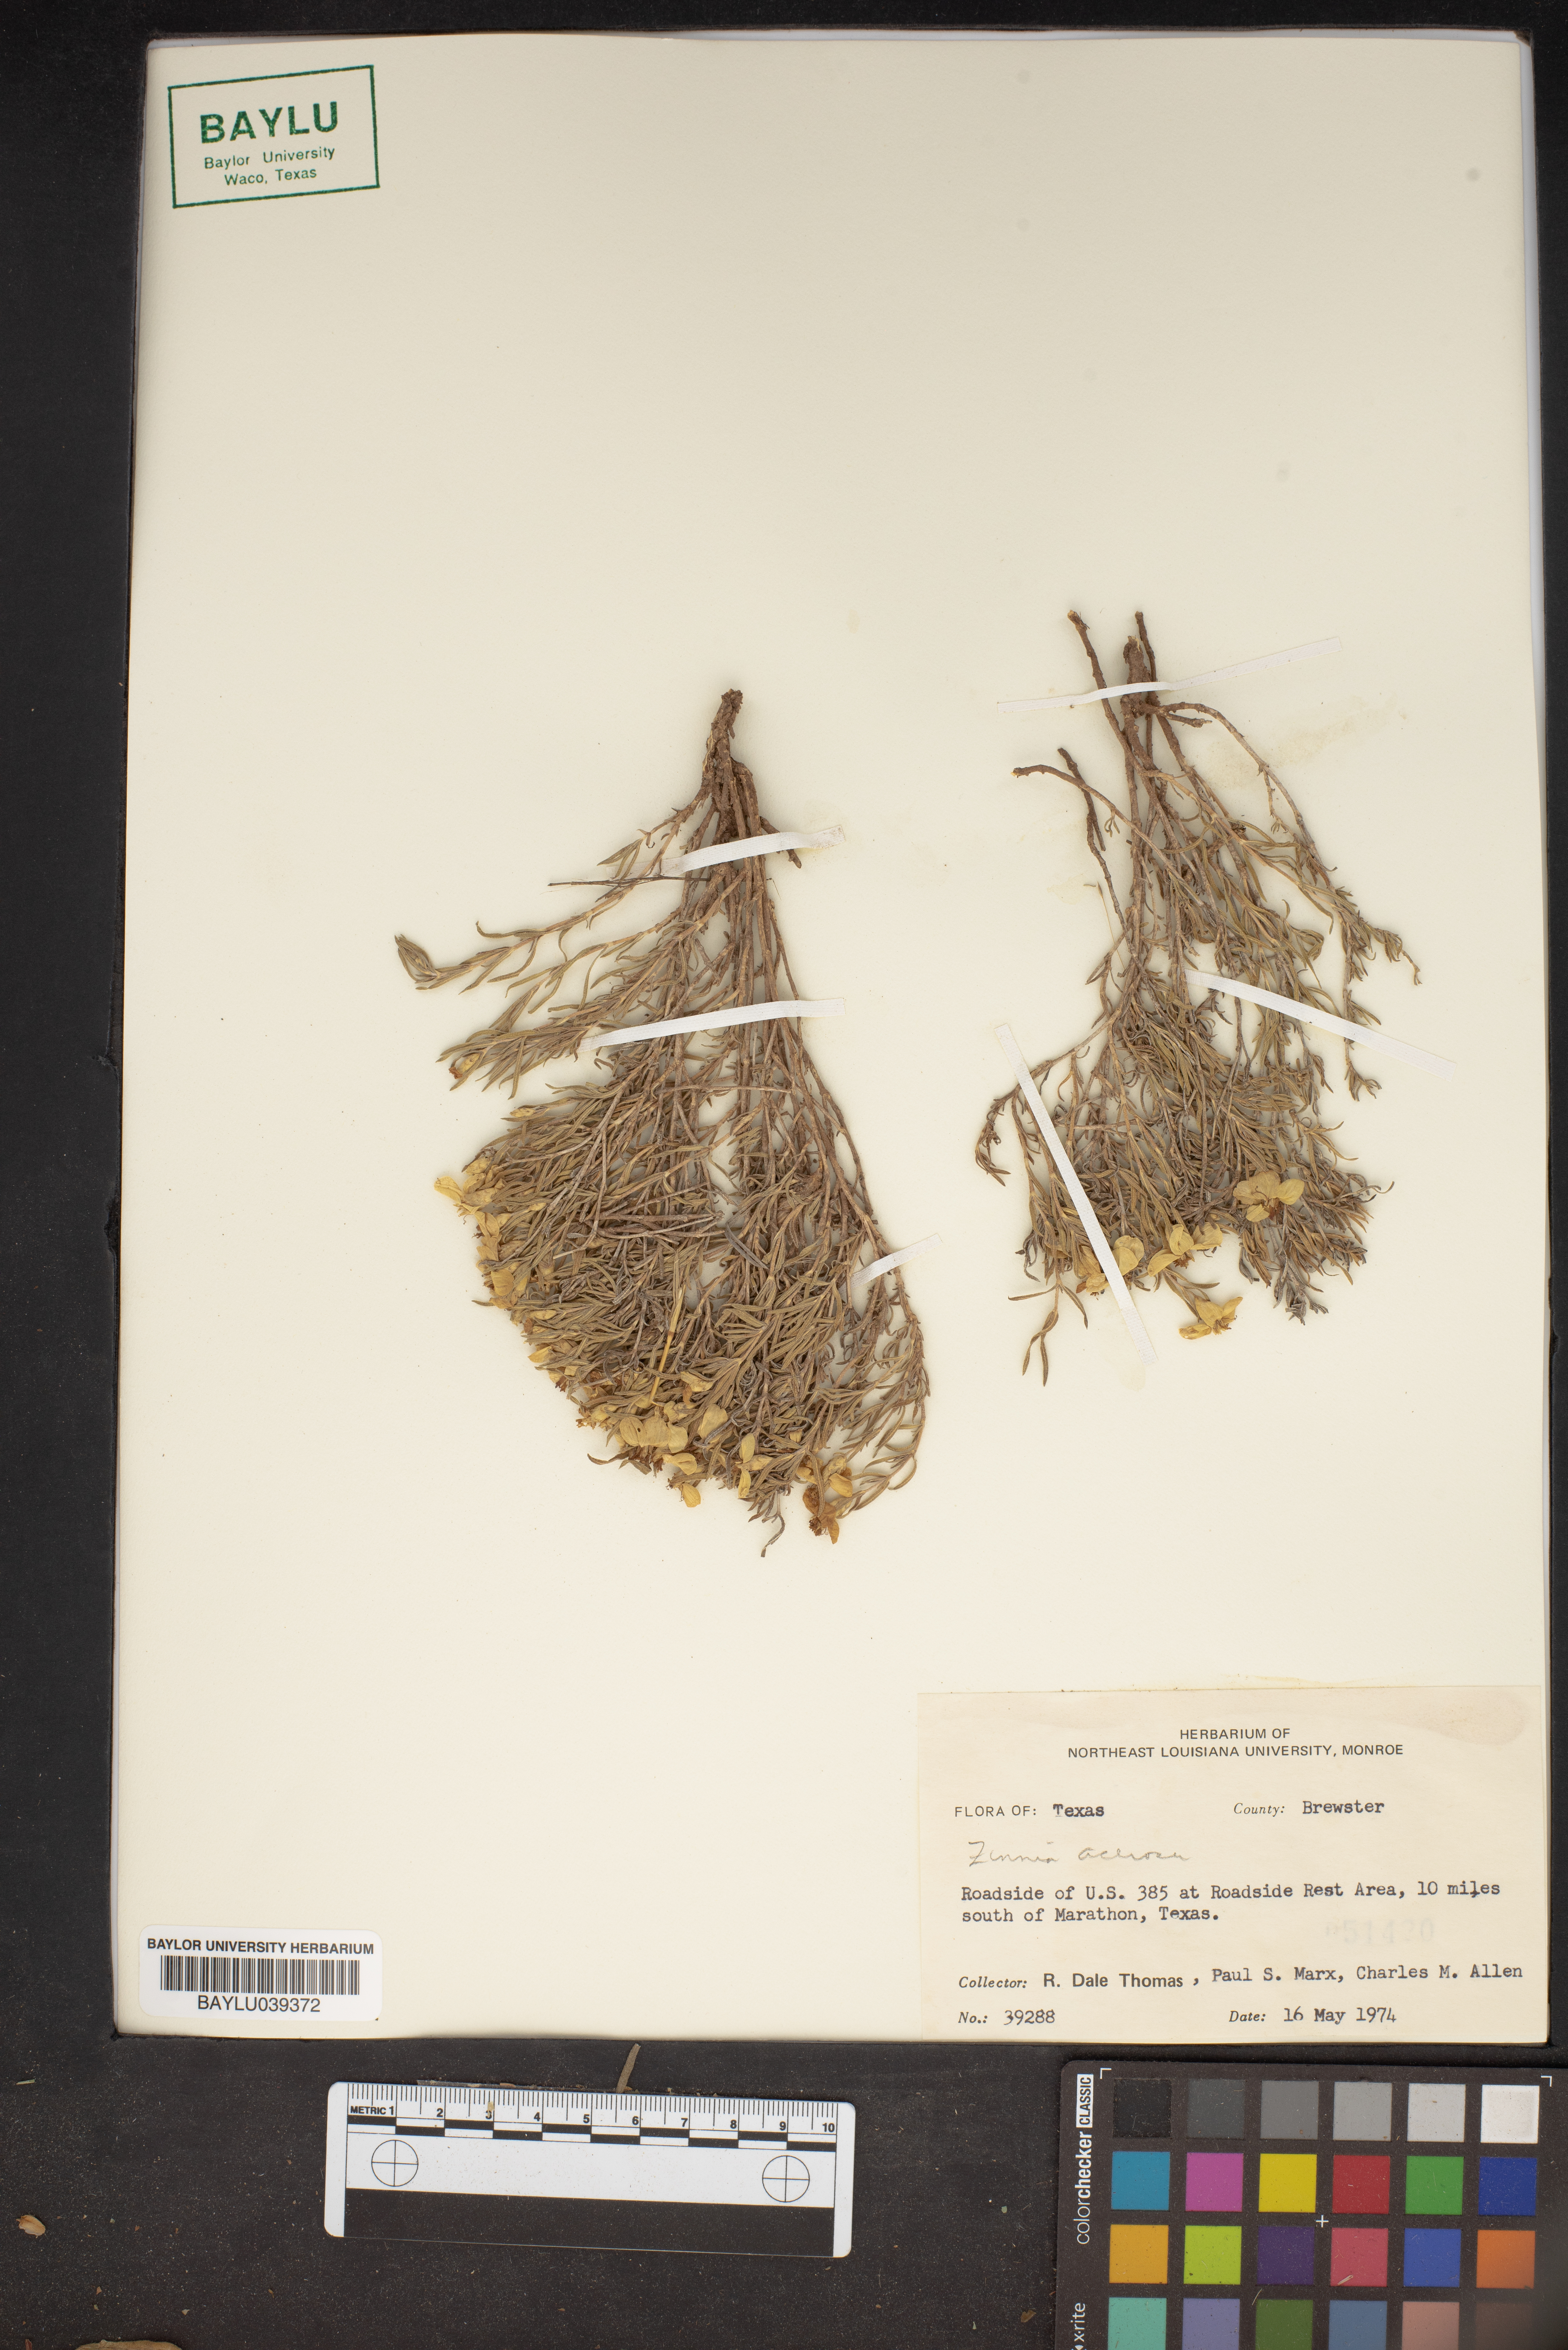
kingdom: Plantae
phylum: Tracheophyta
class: Magnoliopsida
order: Asterales
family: Asteraceae
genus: Zinnia
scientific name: Zinnia acerosa
